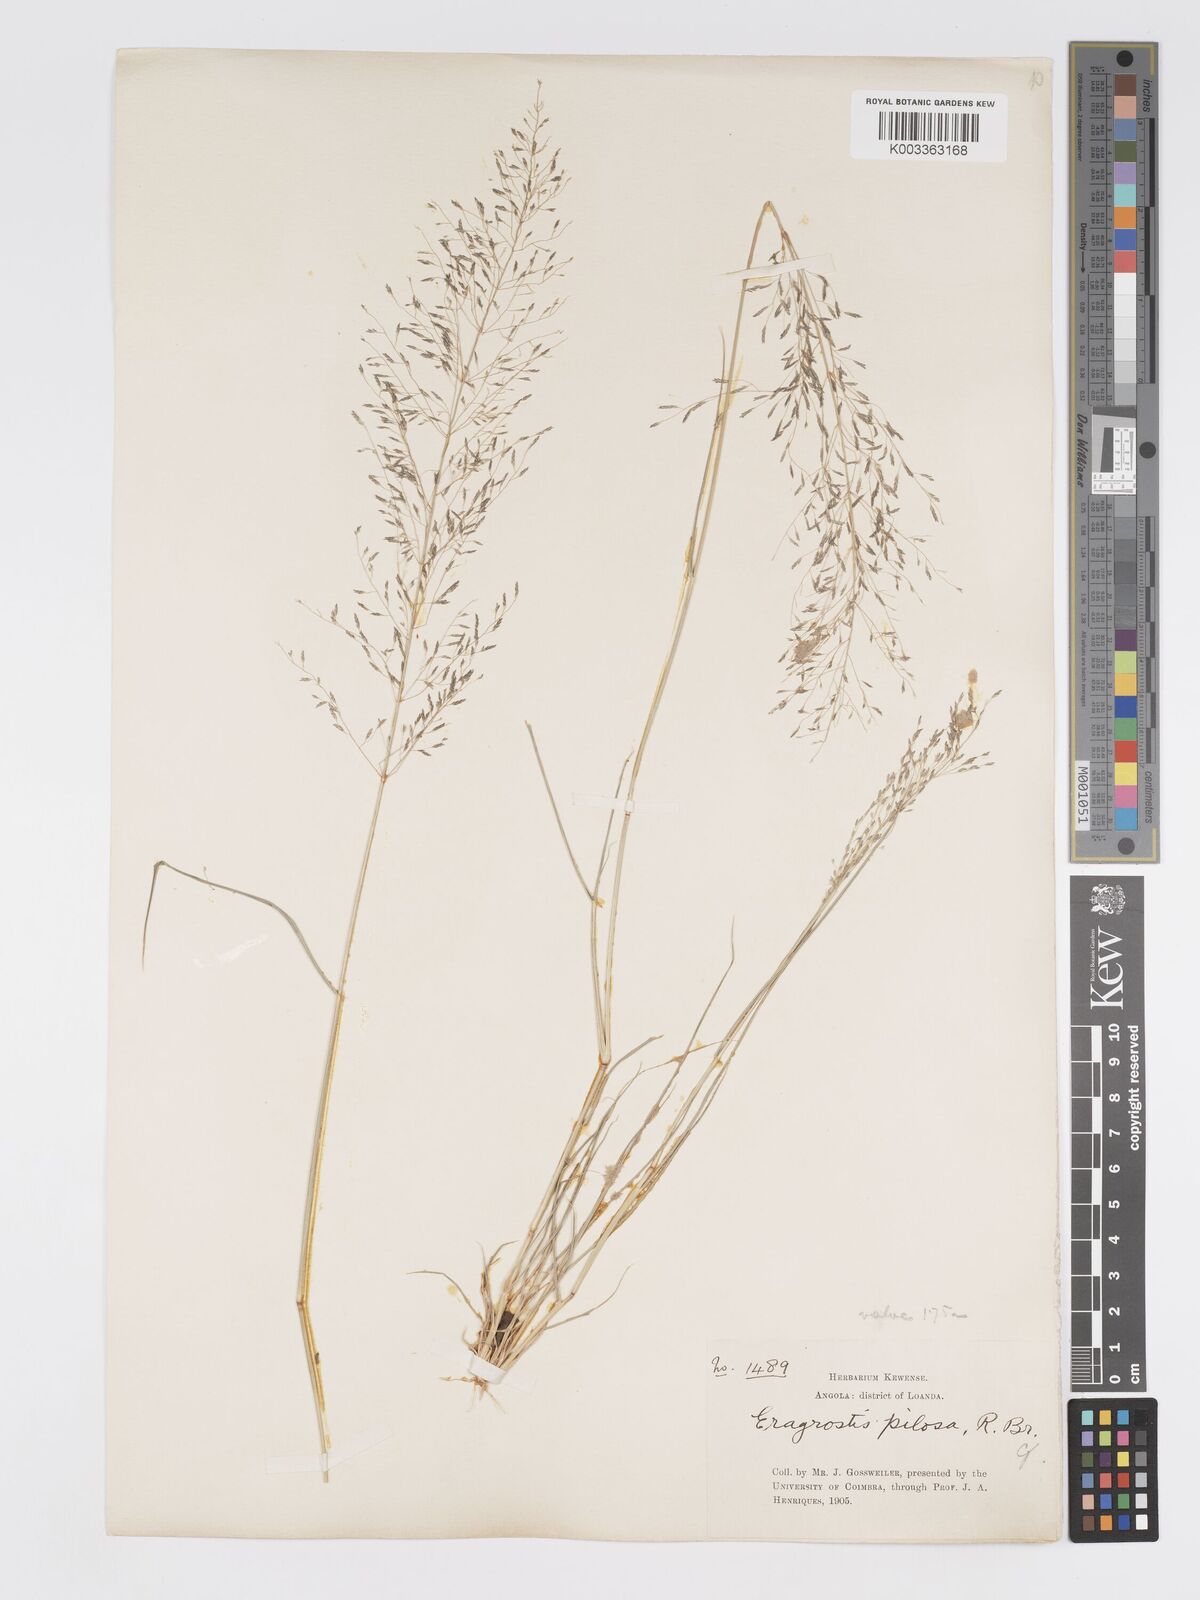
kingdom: Plantae
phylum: Tracheophyta
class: Liliopsida
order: Poales
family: Poaceae
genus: Eragrostis
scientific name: Eragrostis cylindriflora
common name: Cylinderflower lovegrass
